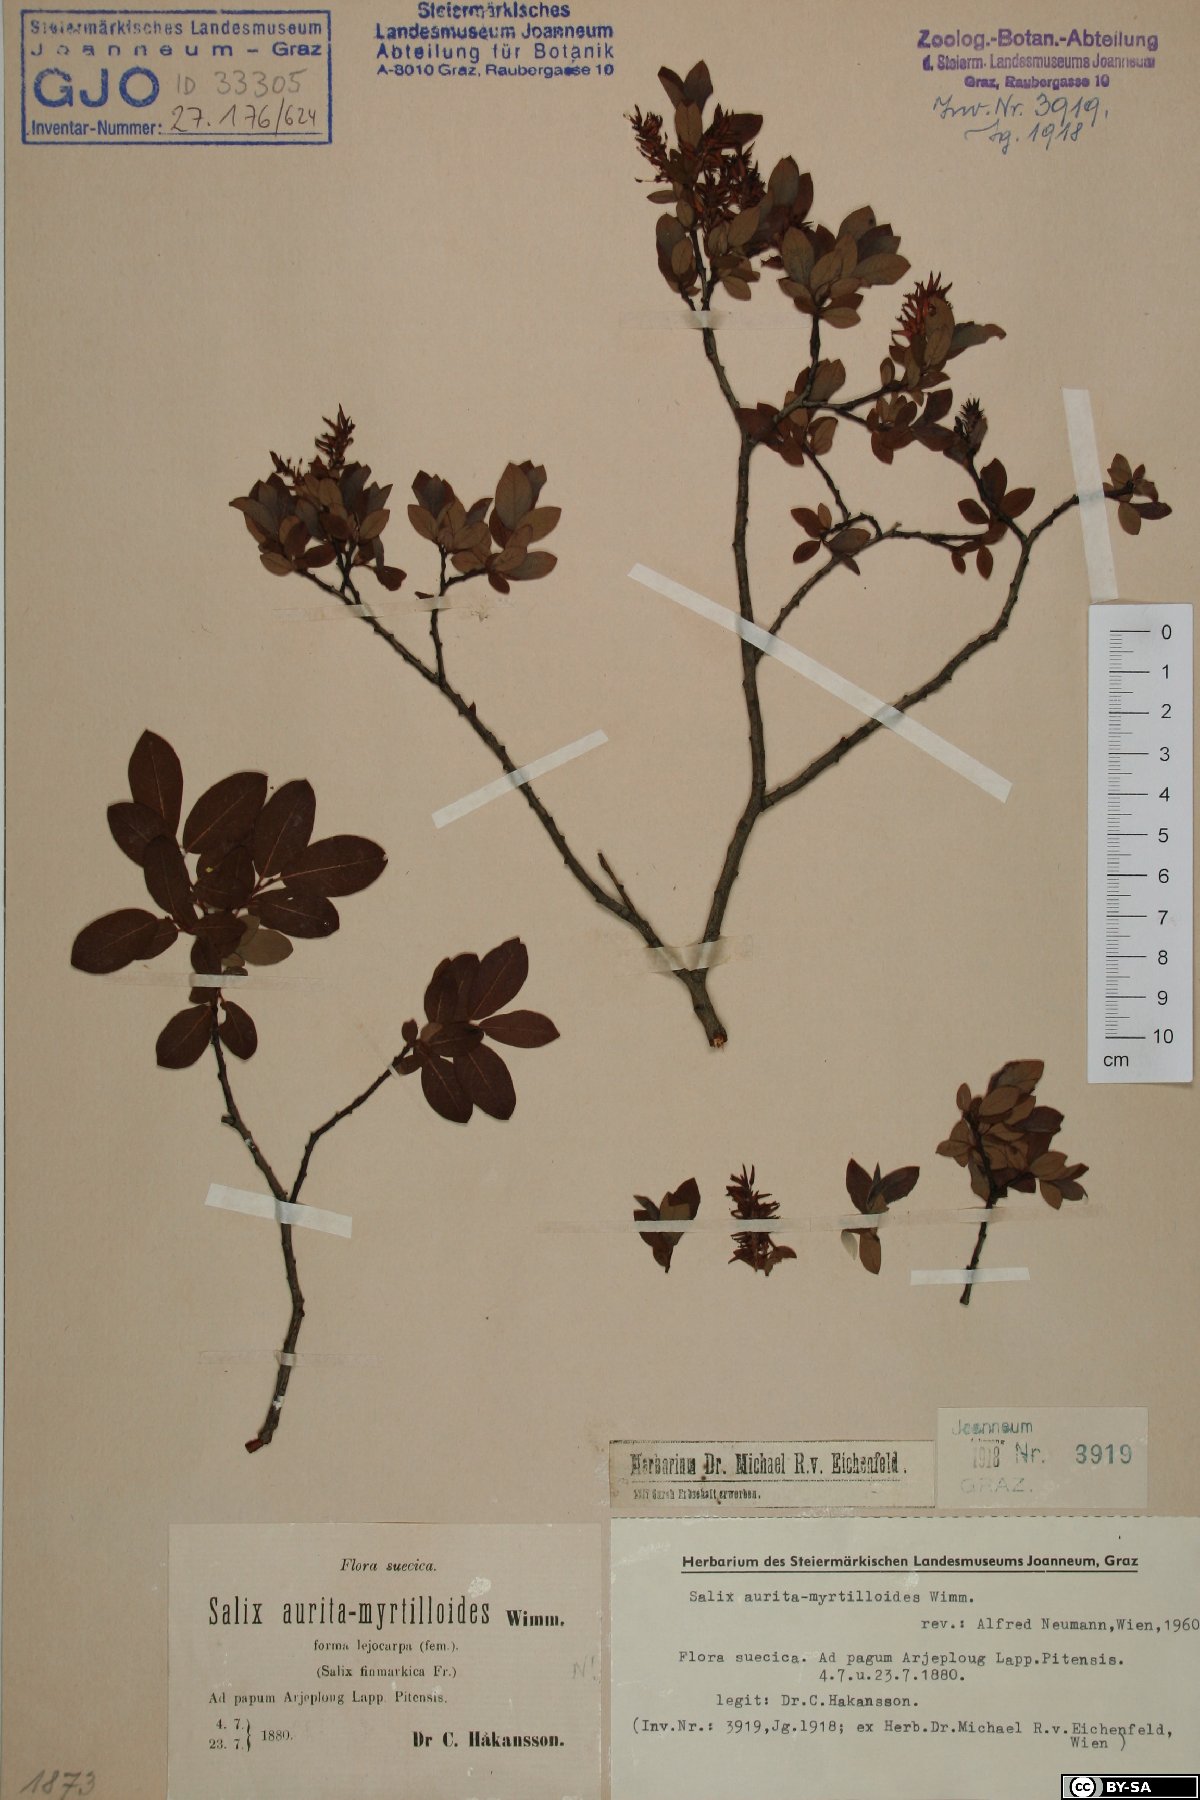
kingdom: Plantae
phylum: Tracheophyta
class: Magnoliopsida
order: Malpighiales
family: Salicaceae
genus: Salix
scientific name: Salix aurita
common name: Eared willow
